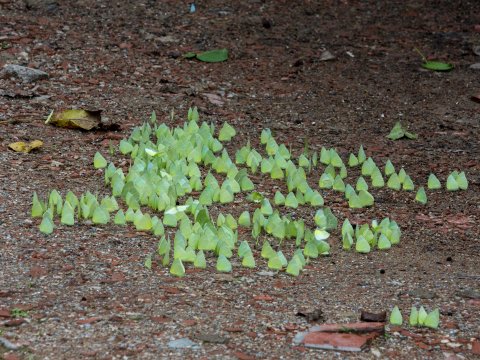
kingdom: Animalia
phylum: Arthropoda
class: Insecta
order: Lepidoptera
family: Pieridae
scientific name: Pieridae
